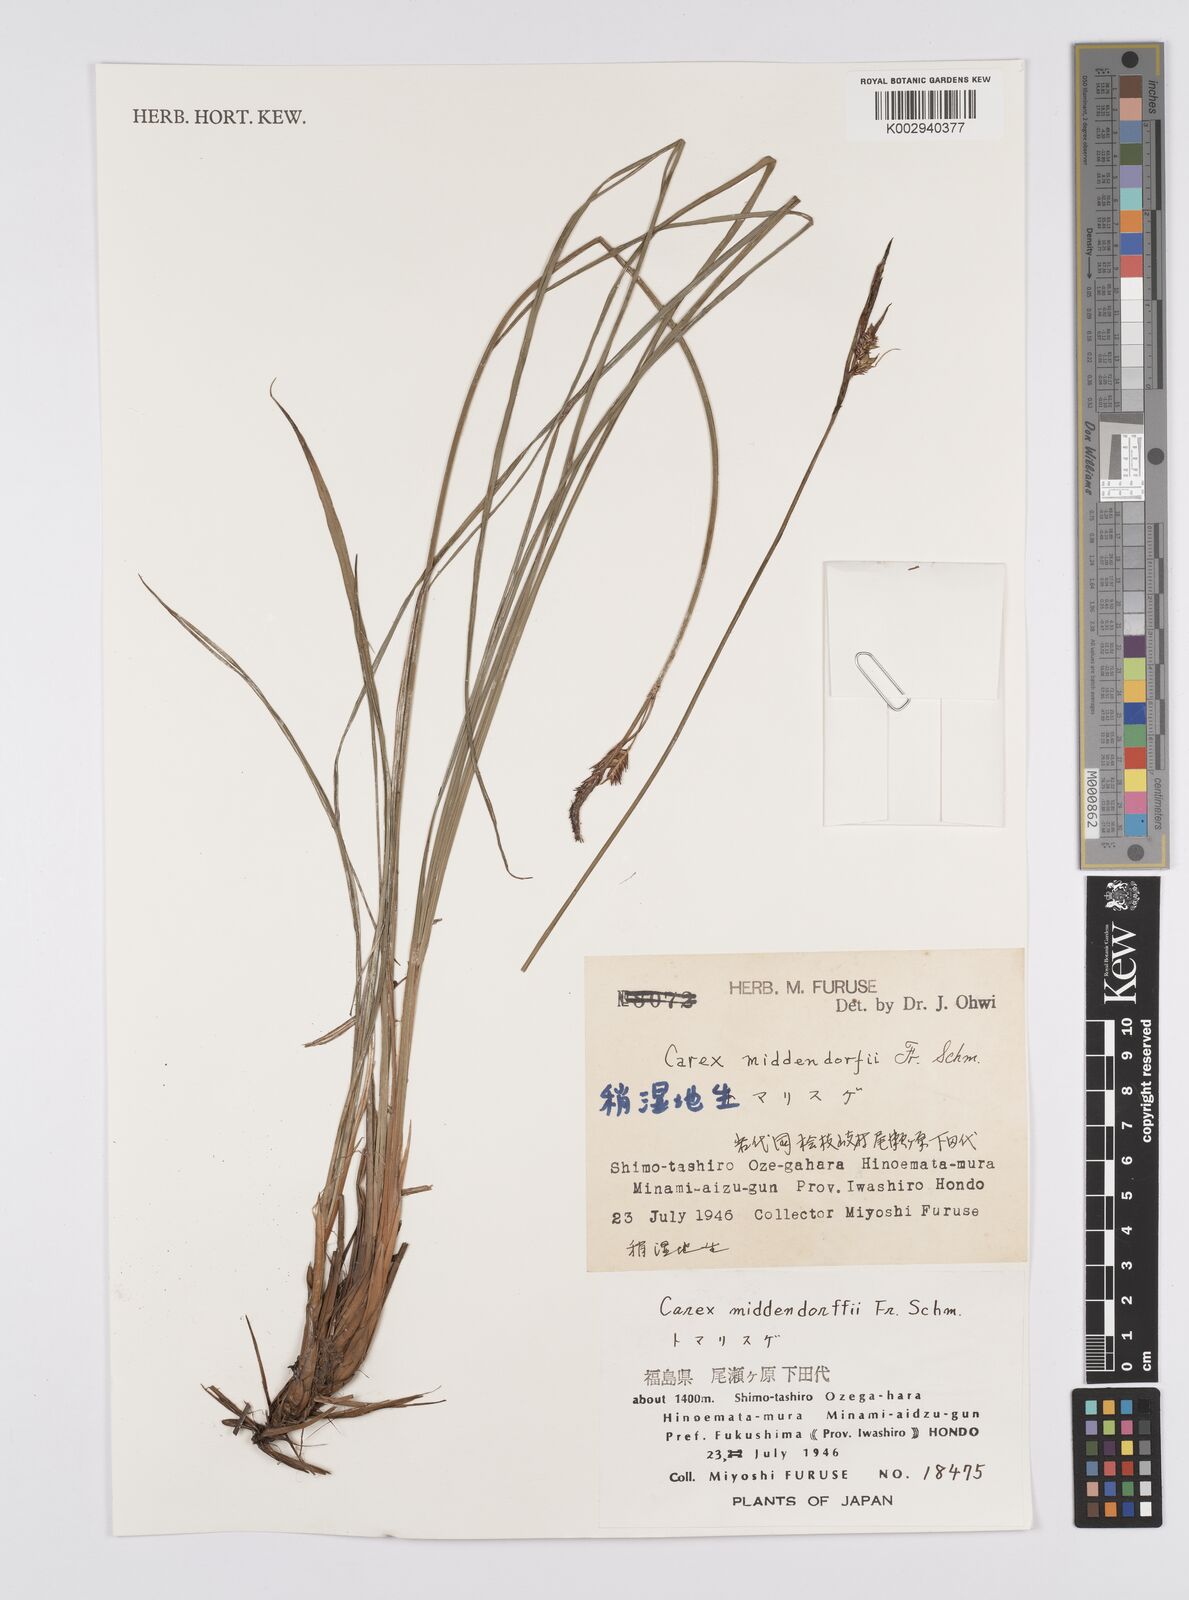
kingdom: Plantae
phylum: Tracheophyta
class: Liliopsida
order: Poales
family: Cyperaceae
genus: Carex
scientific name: Carex middendorffii
